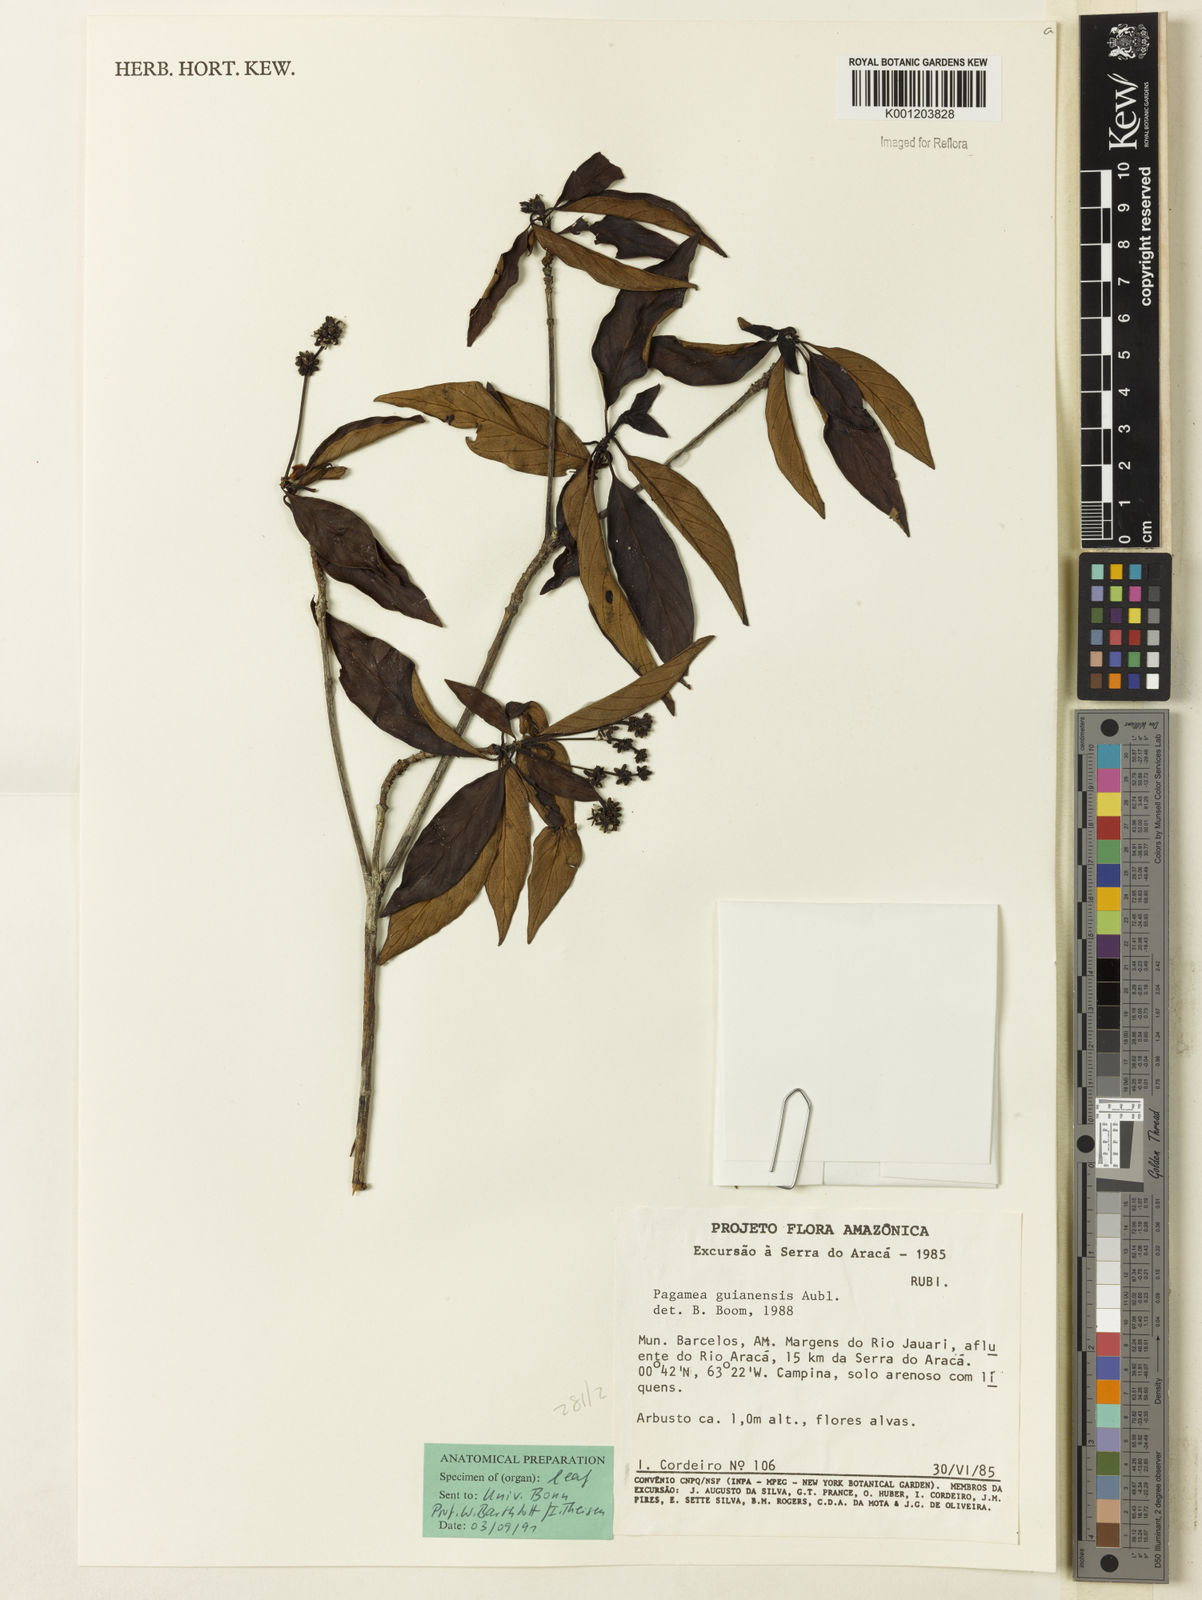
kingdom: Plantae
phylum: Tracheophyta
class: Magnoliopsida
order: Gentianales
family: Rubiaceae
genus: Pagamea
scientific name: Pagamea guianensis
